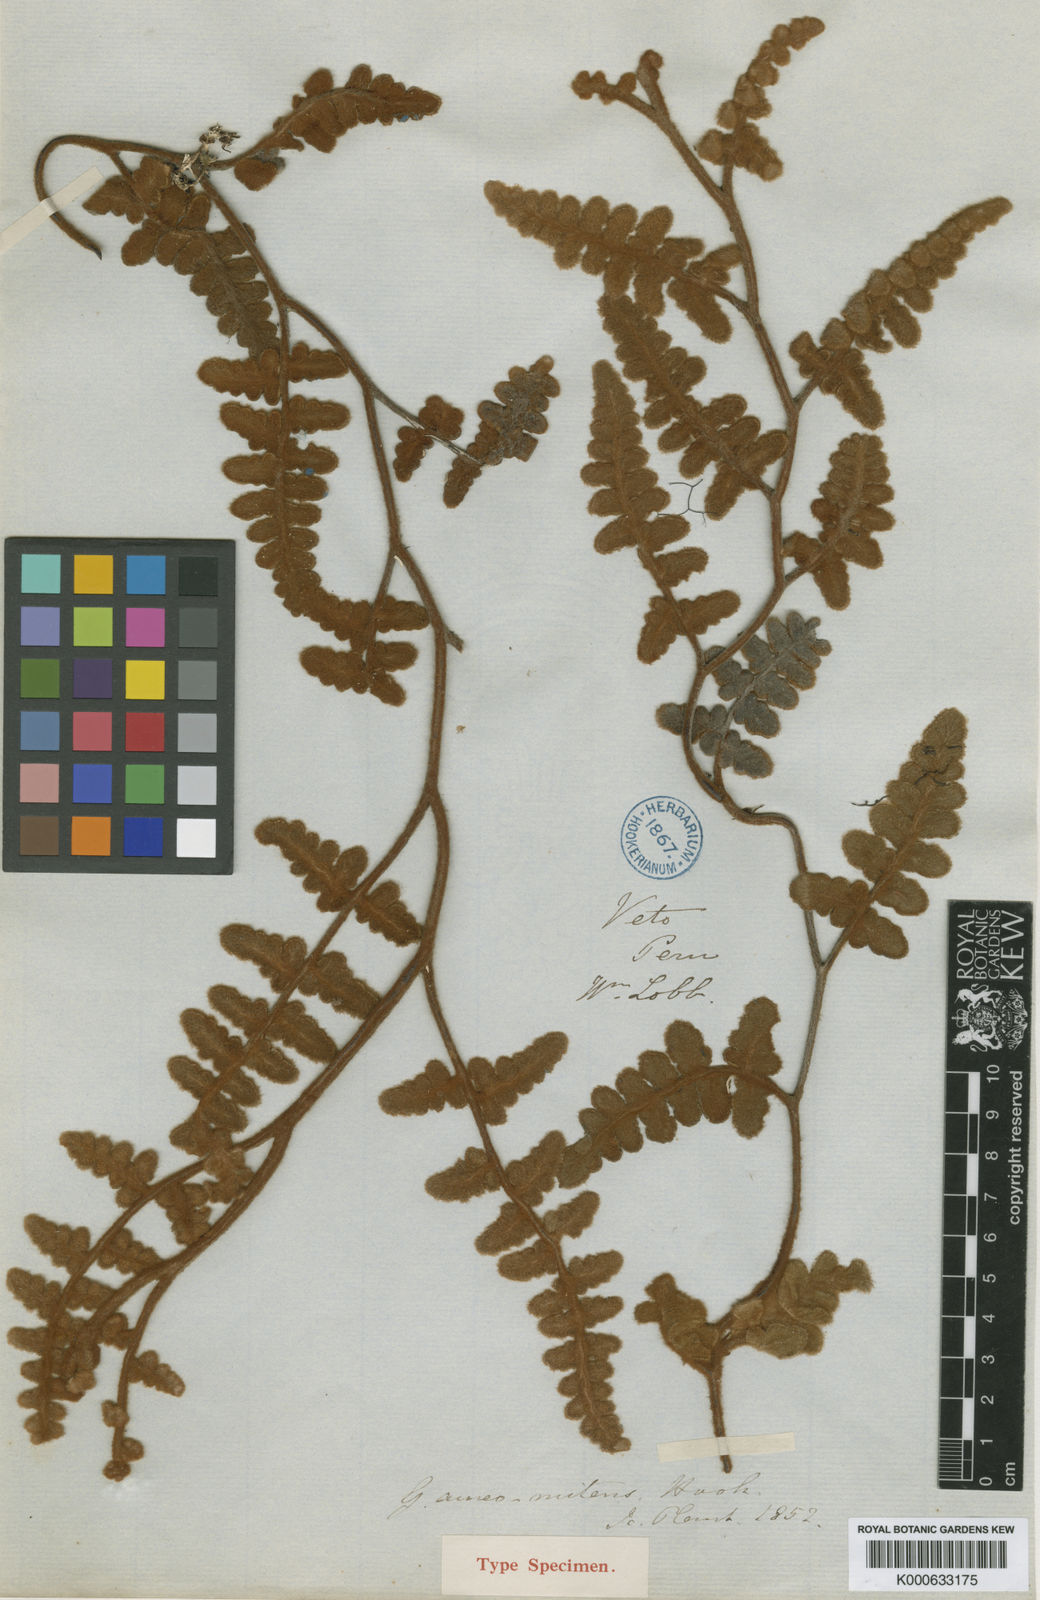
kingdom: Plantae
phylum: Tracheophyta
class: Polypodiopsida
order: Polypodiales
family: Pteridaceae
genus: Jamesonia
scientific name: Jamesonia aureonitens
